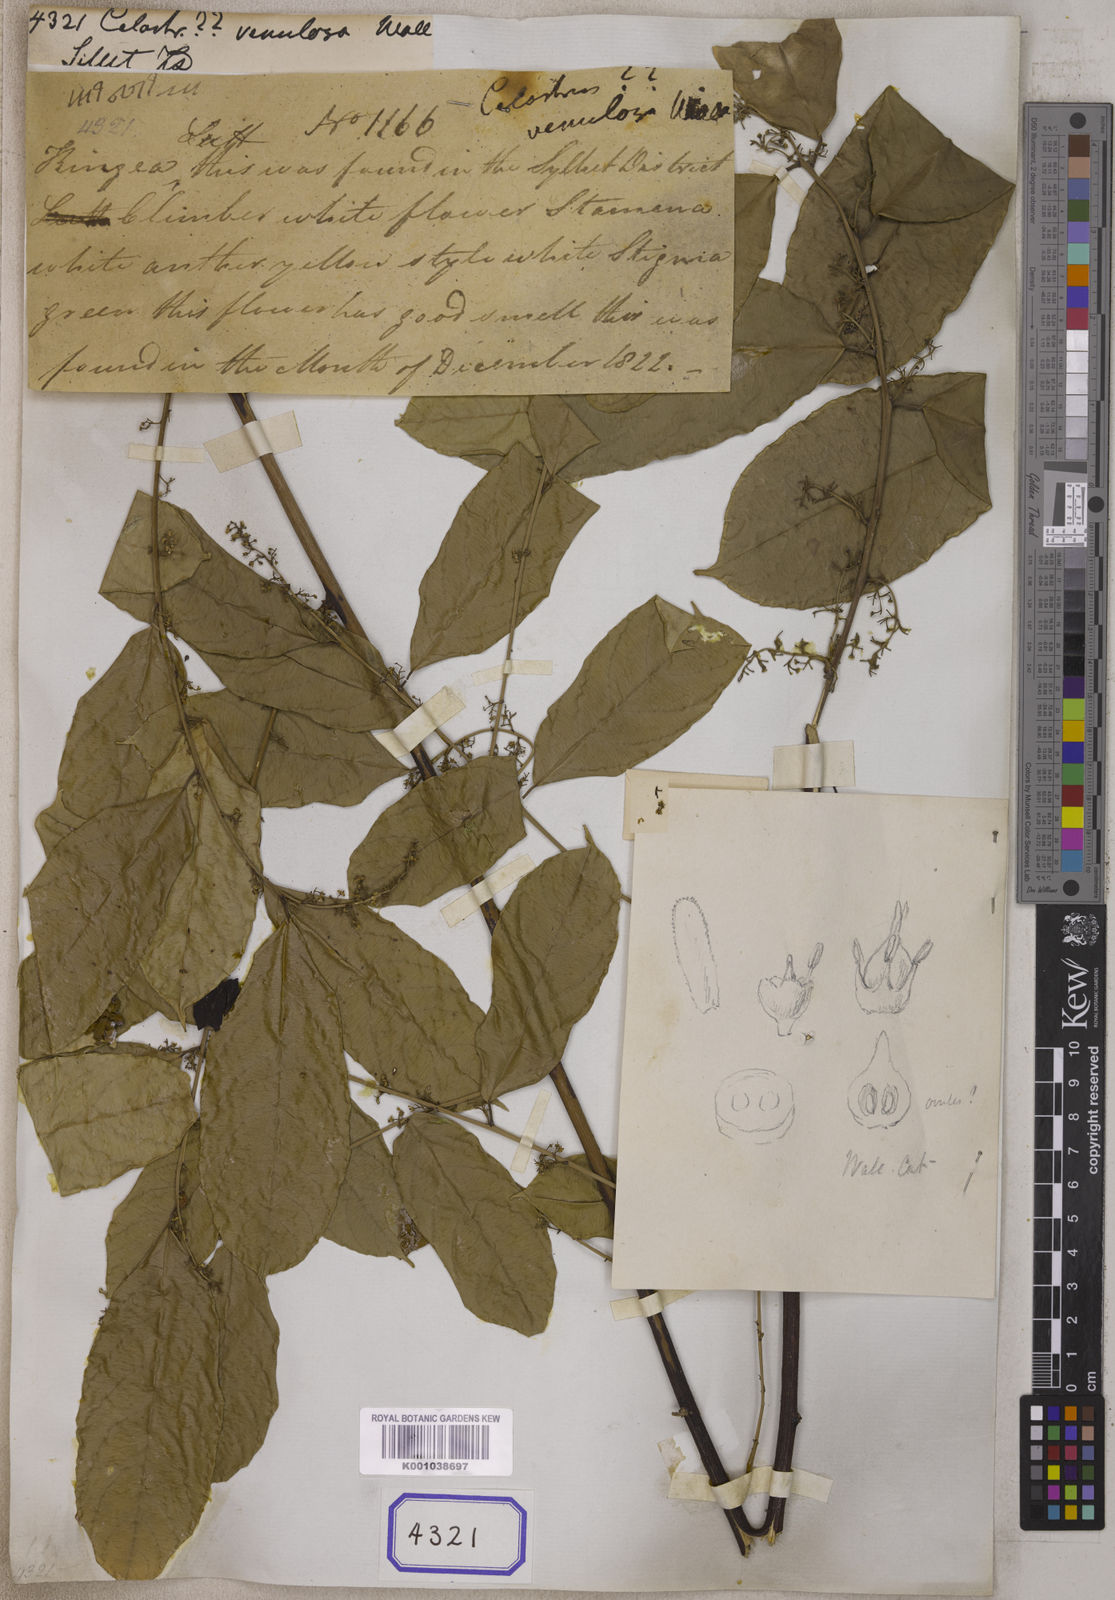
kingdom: Plantae
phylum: Tracheophyta
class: Magnoliopsida
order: Celastrales
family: Celastraceae
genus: Celastrus
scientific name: Celastrus
